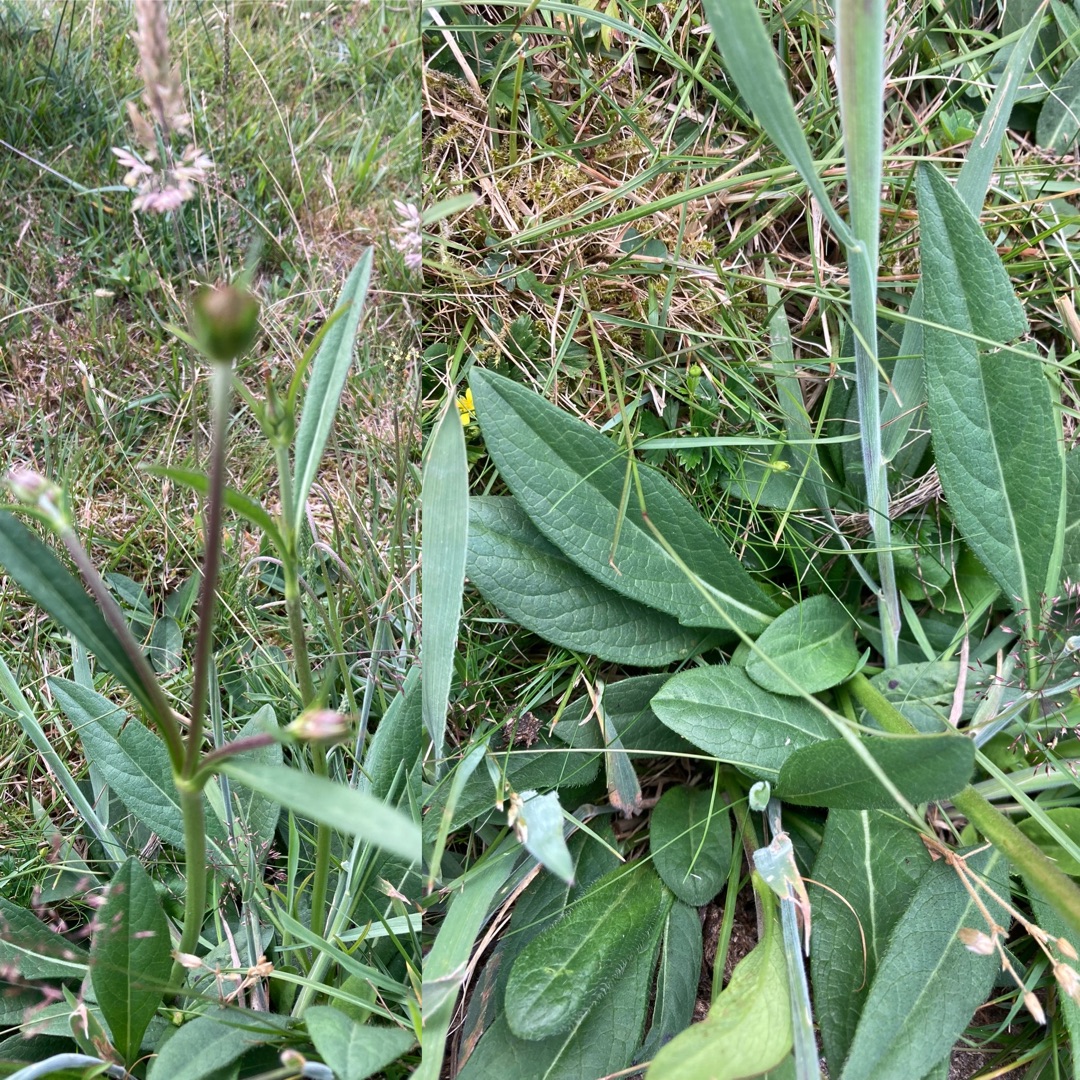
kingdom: Plantae
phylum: Tracheophyta
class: Magnoliopsida
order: Dipsacales
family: Caprifoliaceae
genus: Succisa
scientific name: Succisa pratensis
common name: Djævelsbid
